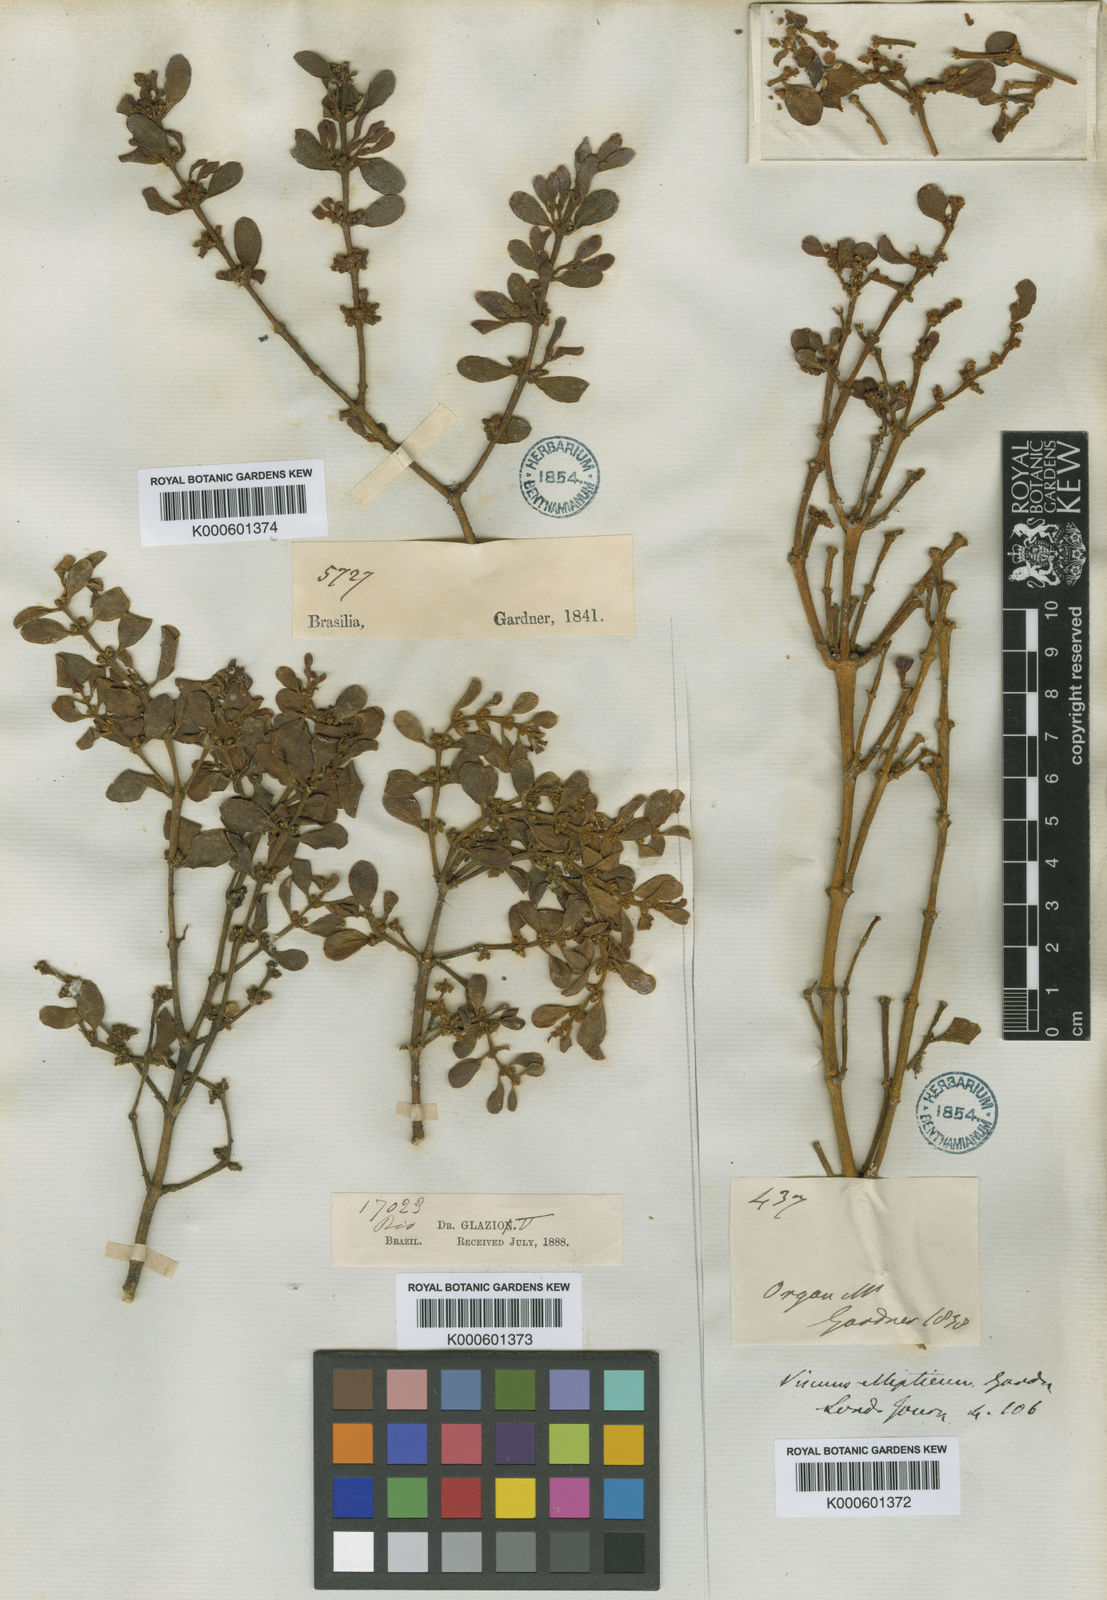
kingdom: Plantae
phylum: Tracheophyta
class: Magnoliopsida
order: Santalales
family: Viscaceae
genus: Dendrophthora
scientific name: Dendrophthora elliptica
